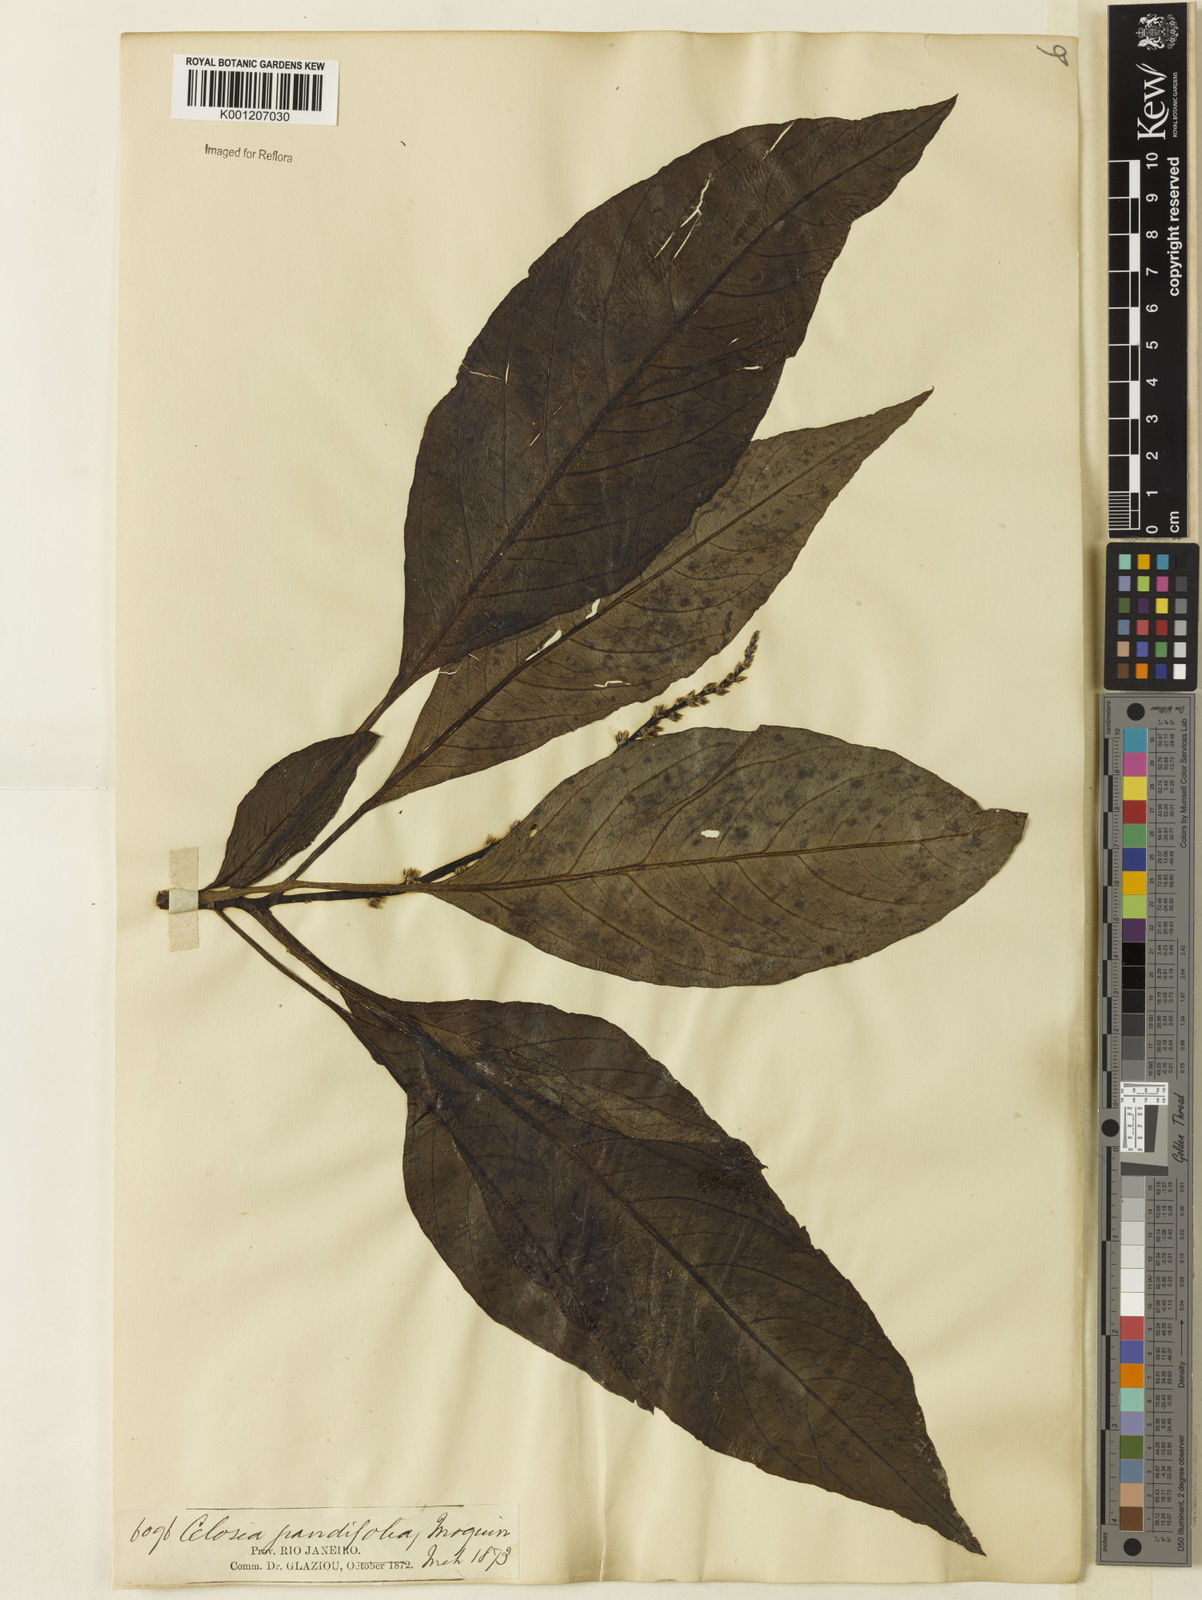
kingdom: Plantae
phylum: Tracheophyta
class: Magnoliopsida
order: Caryophyllales
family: Amaranthaceae
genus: Celosia
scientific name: Celosia grandifolia
